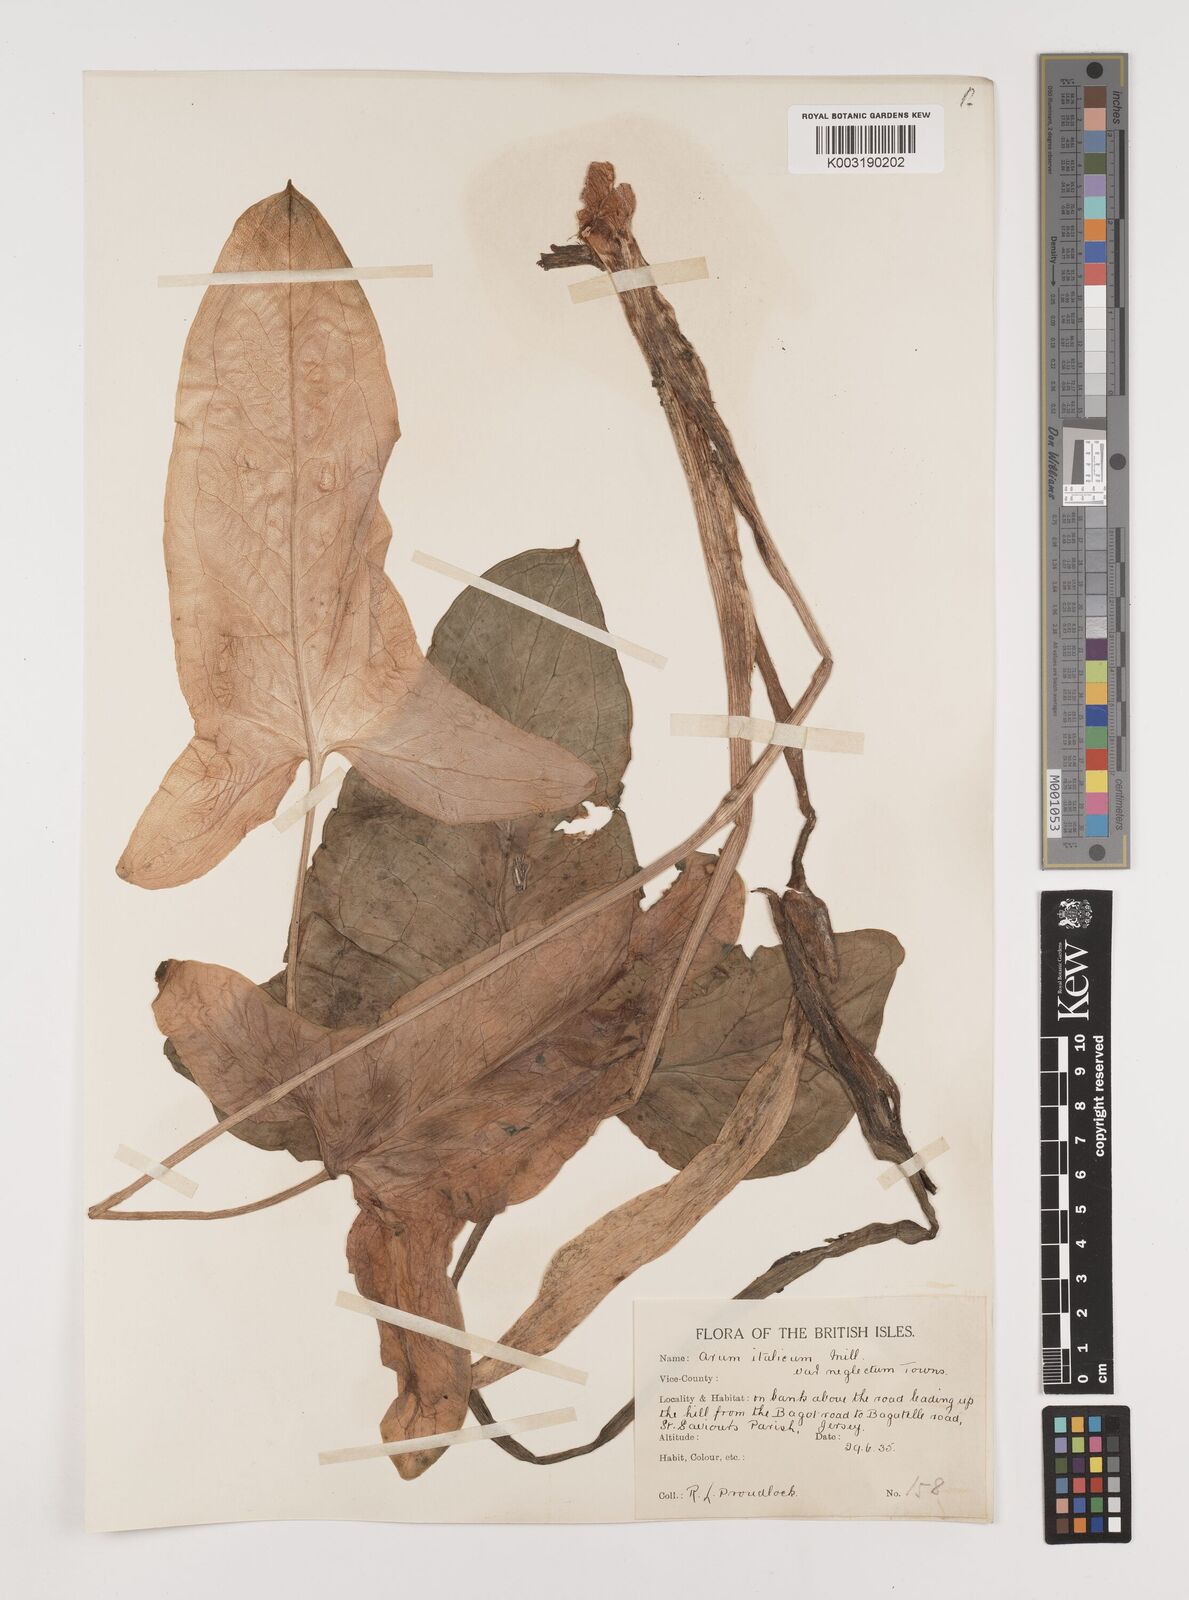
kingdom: Plantae
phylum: Tracheophyta
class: Liliopsida
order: Alismatales
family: Araceae
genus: Arum
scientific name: Arum italicum
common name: Italian lords-and-ladies
